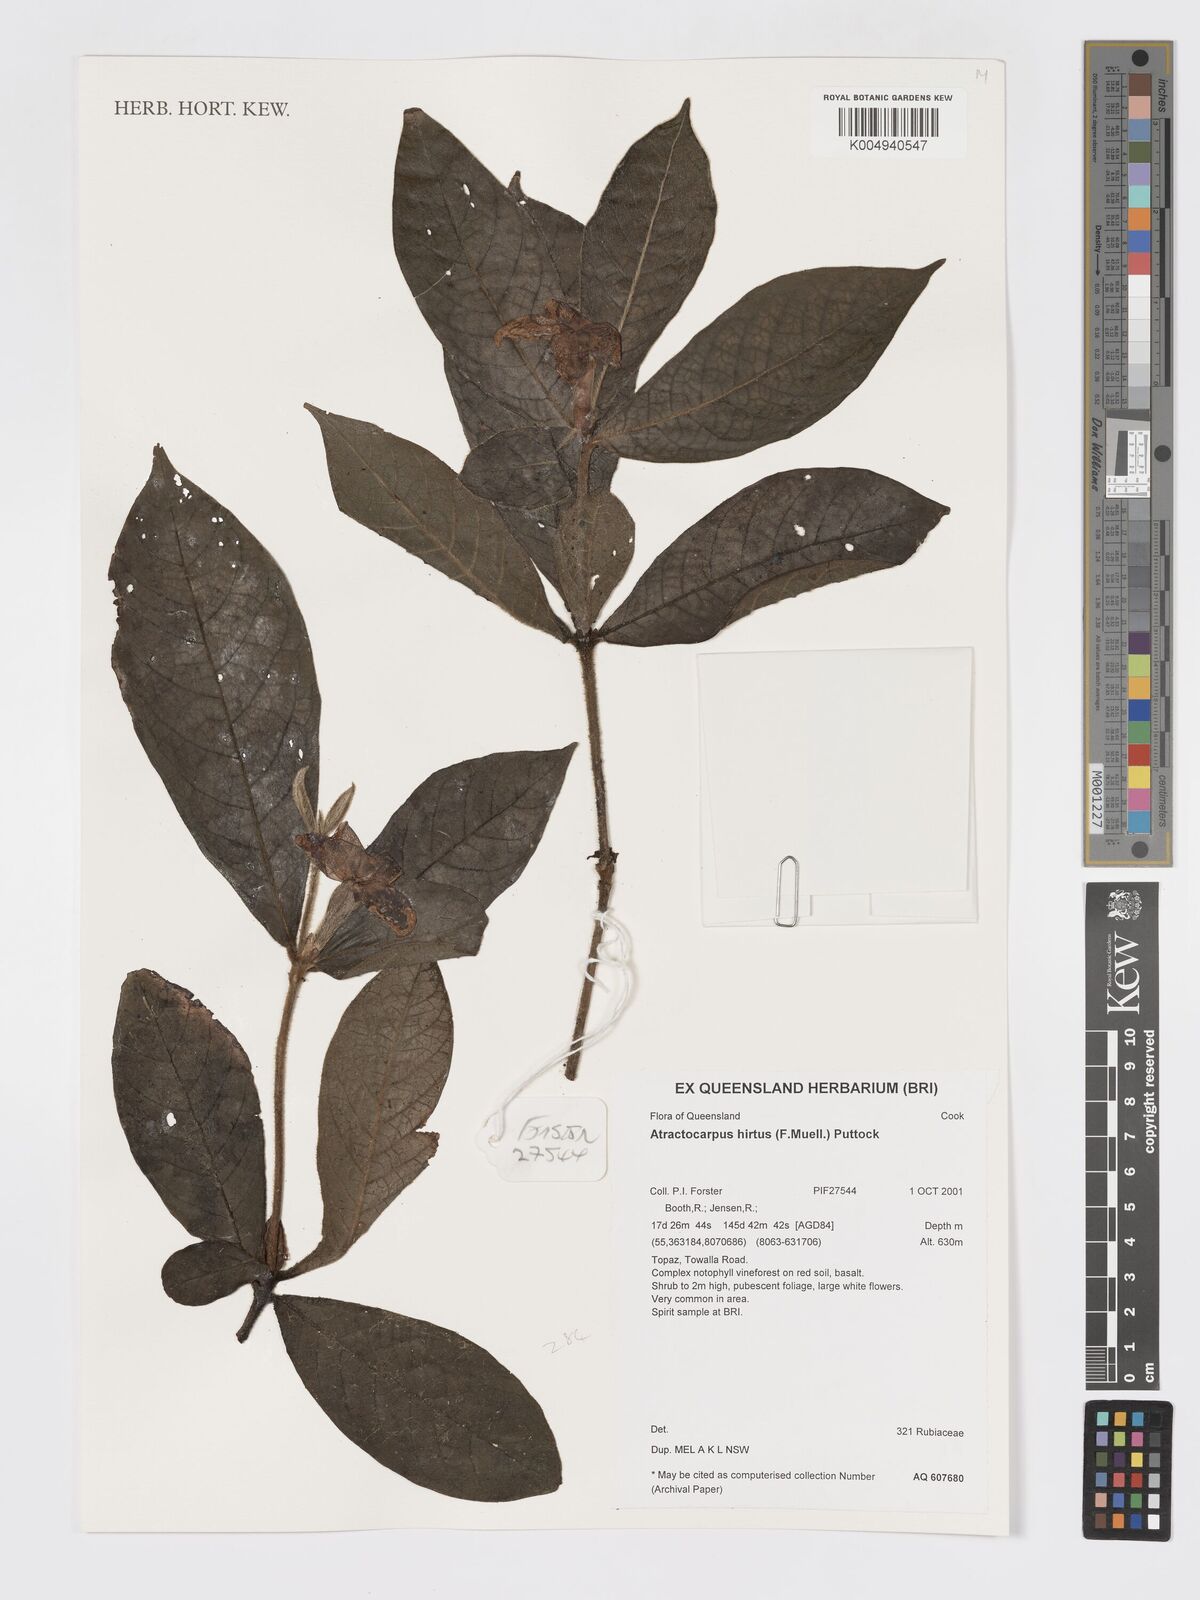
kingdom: Plantae
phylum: Tracheophyta
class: Magnoliopsida
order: Gentianales
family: Rubiaceae
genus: Atractocarpus
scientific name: Atractocarpus hirtus
